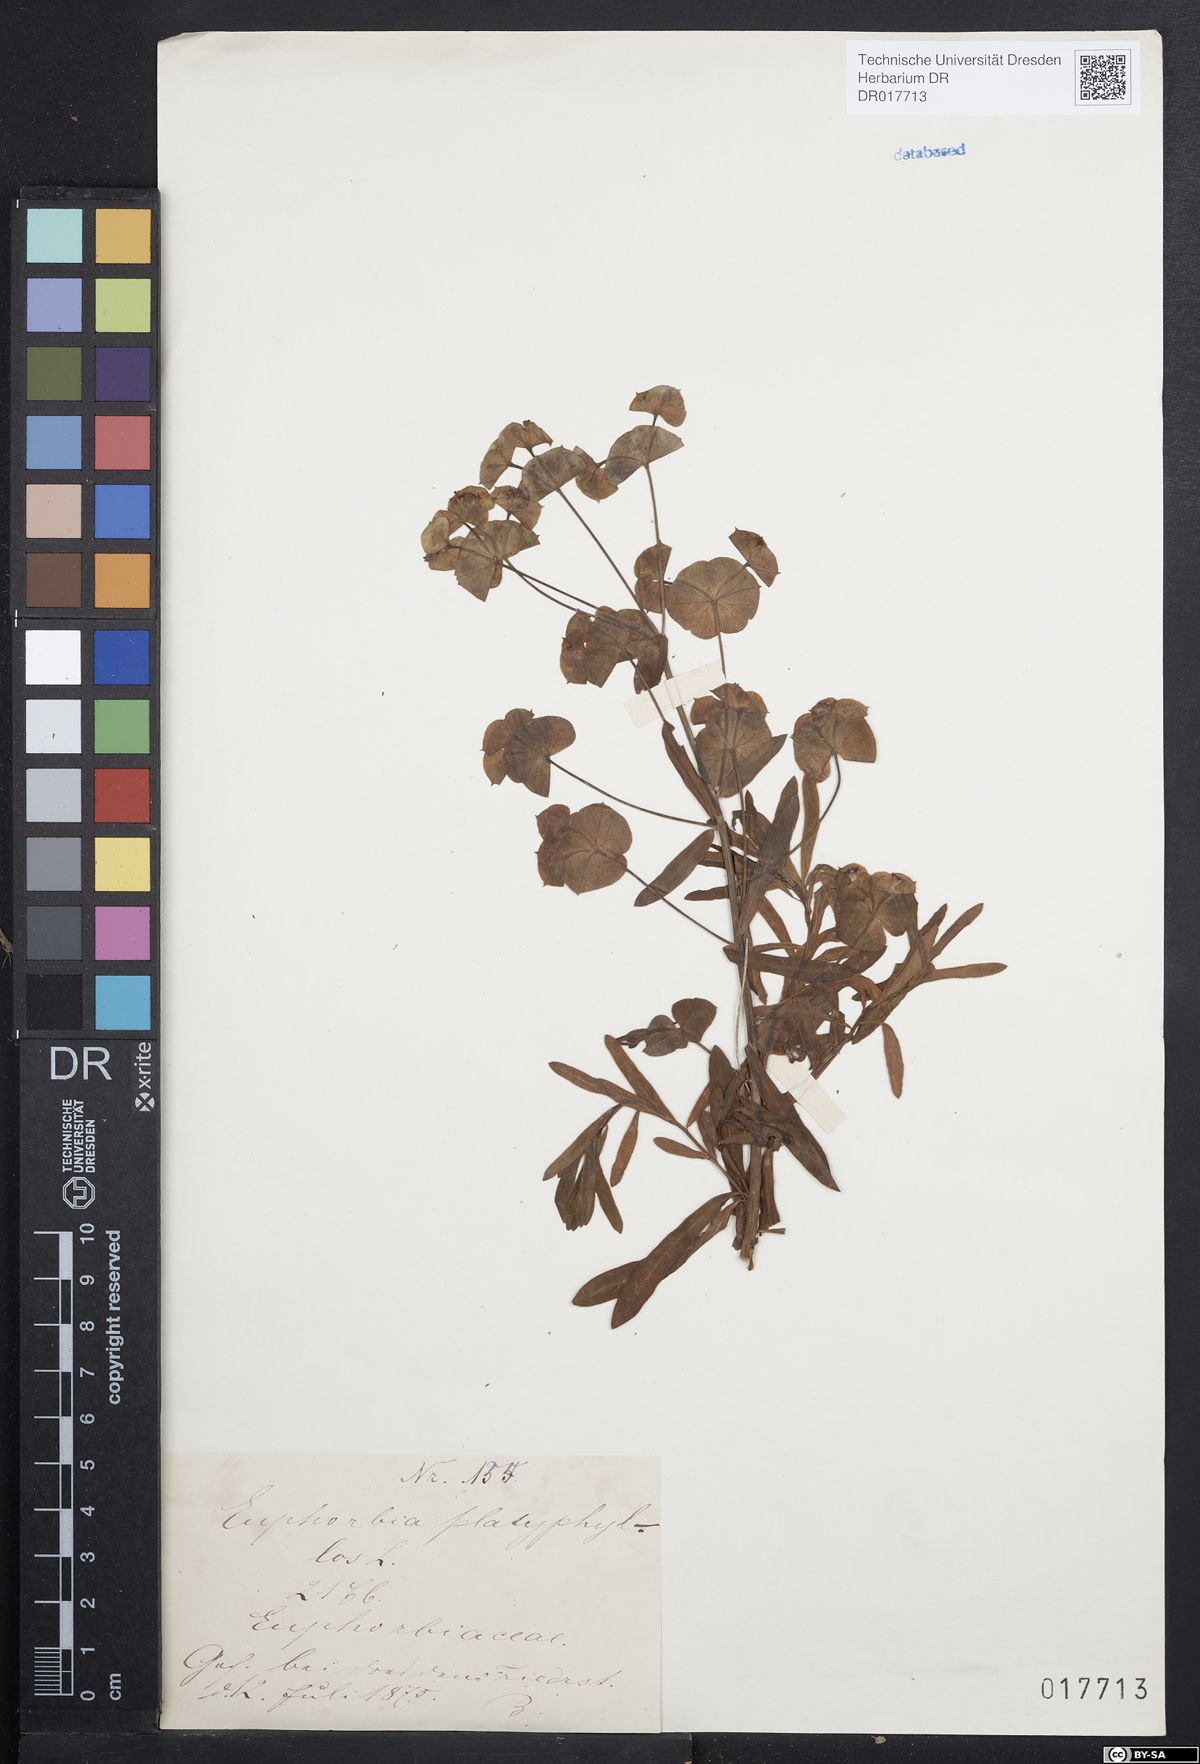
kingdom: Plantae
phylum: Tracheophyta
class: Magnoliopsida
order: Malpighiales
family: Euphorbiaceae
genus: Euphorbia
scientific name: Euphorbia platyphyllos
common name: Broad-leaved spurge
